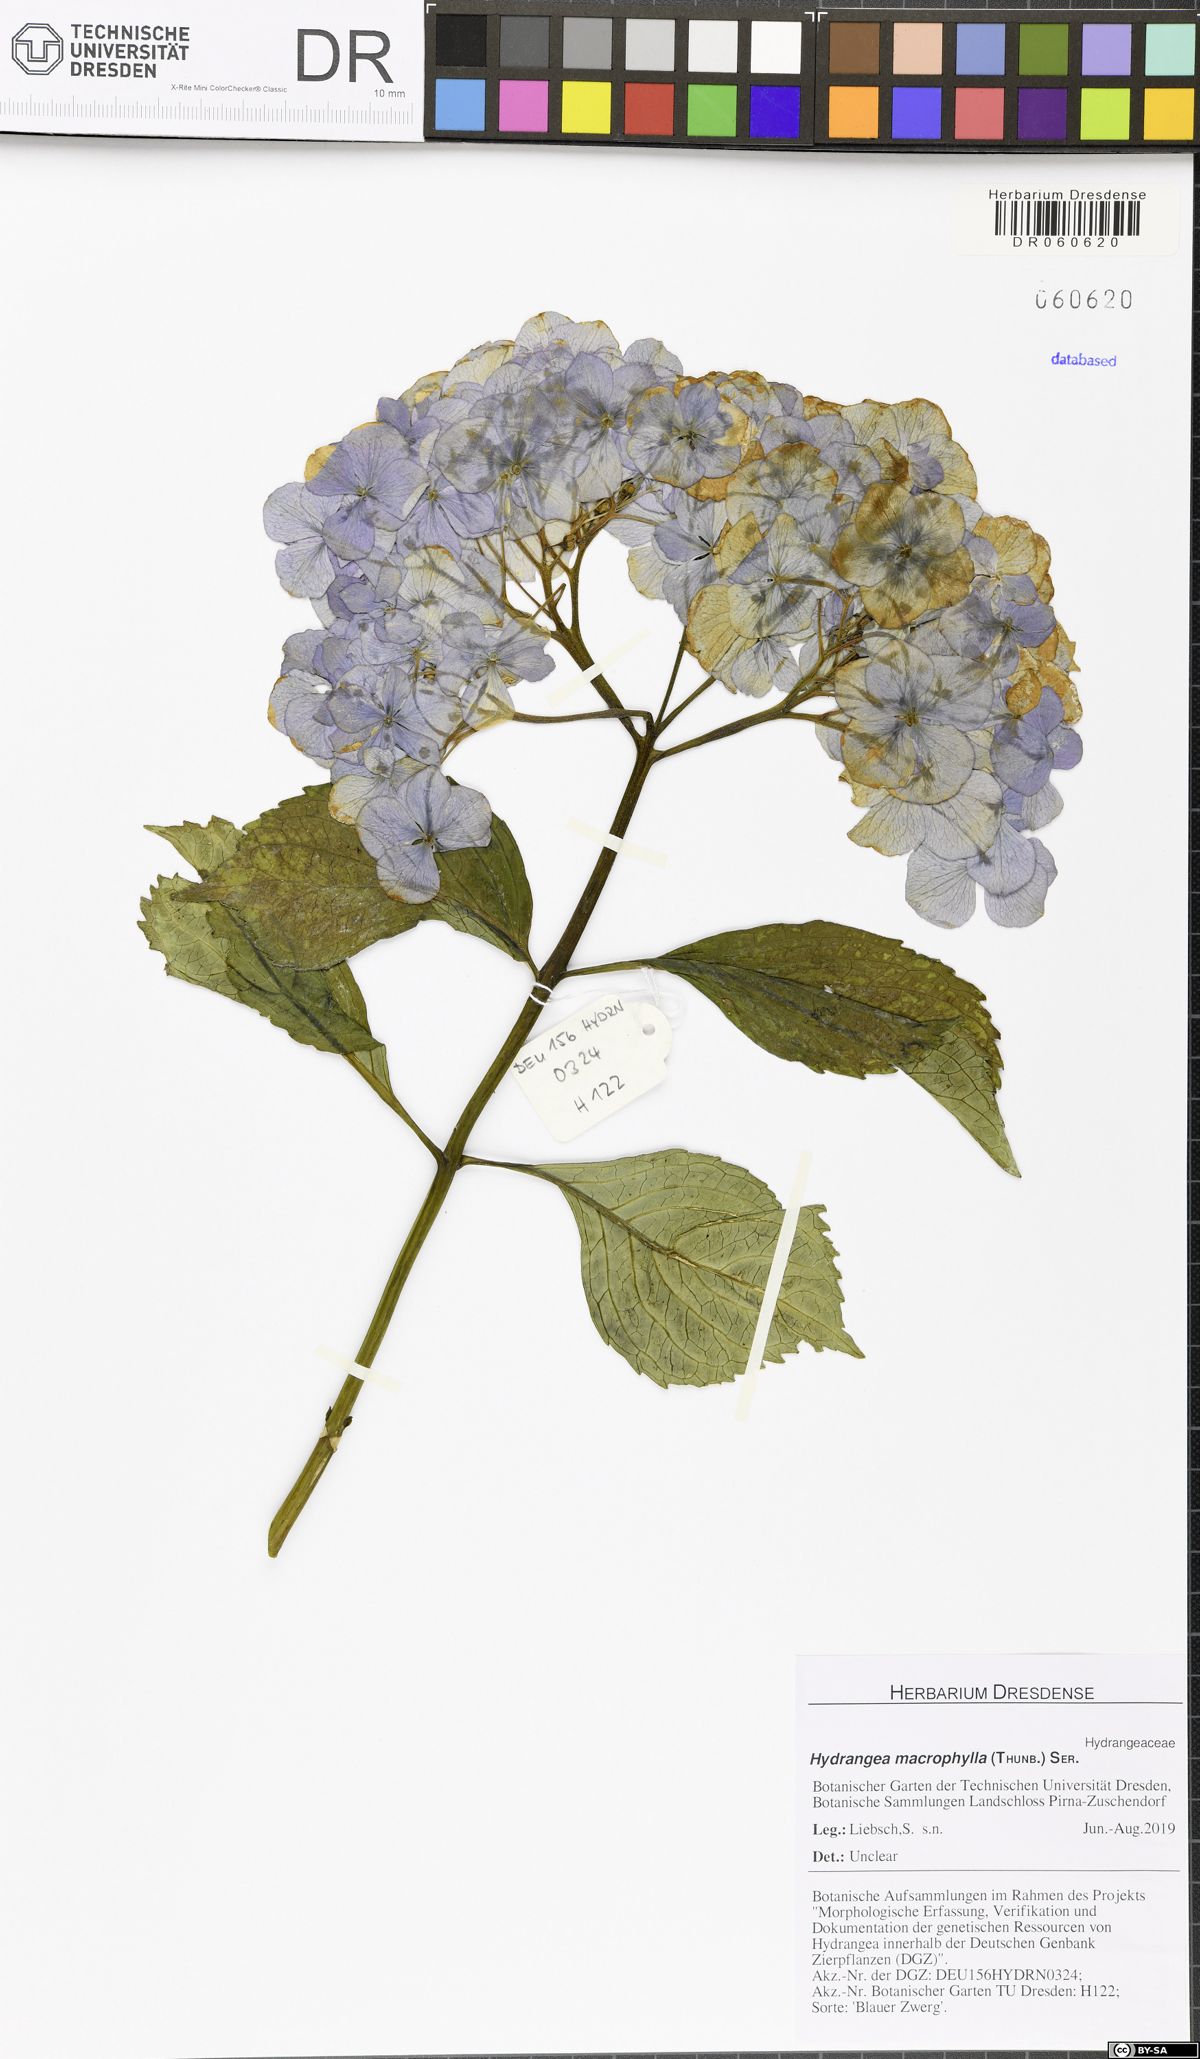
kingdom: Plantae
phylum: Tracheophyta
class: Magnoliopsida
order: Cornales
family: Hydrangeaceae
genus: Hydrangea
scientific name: Hydrangea macrophylla
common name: Hydrangea
